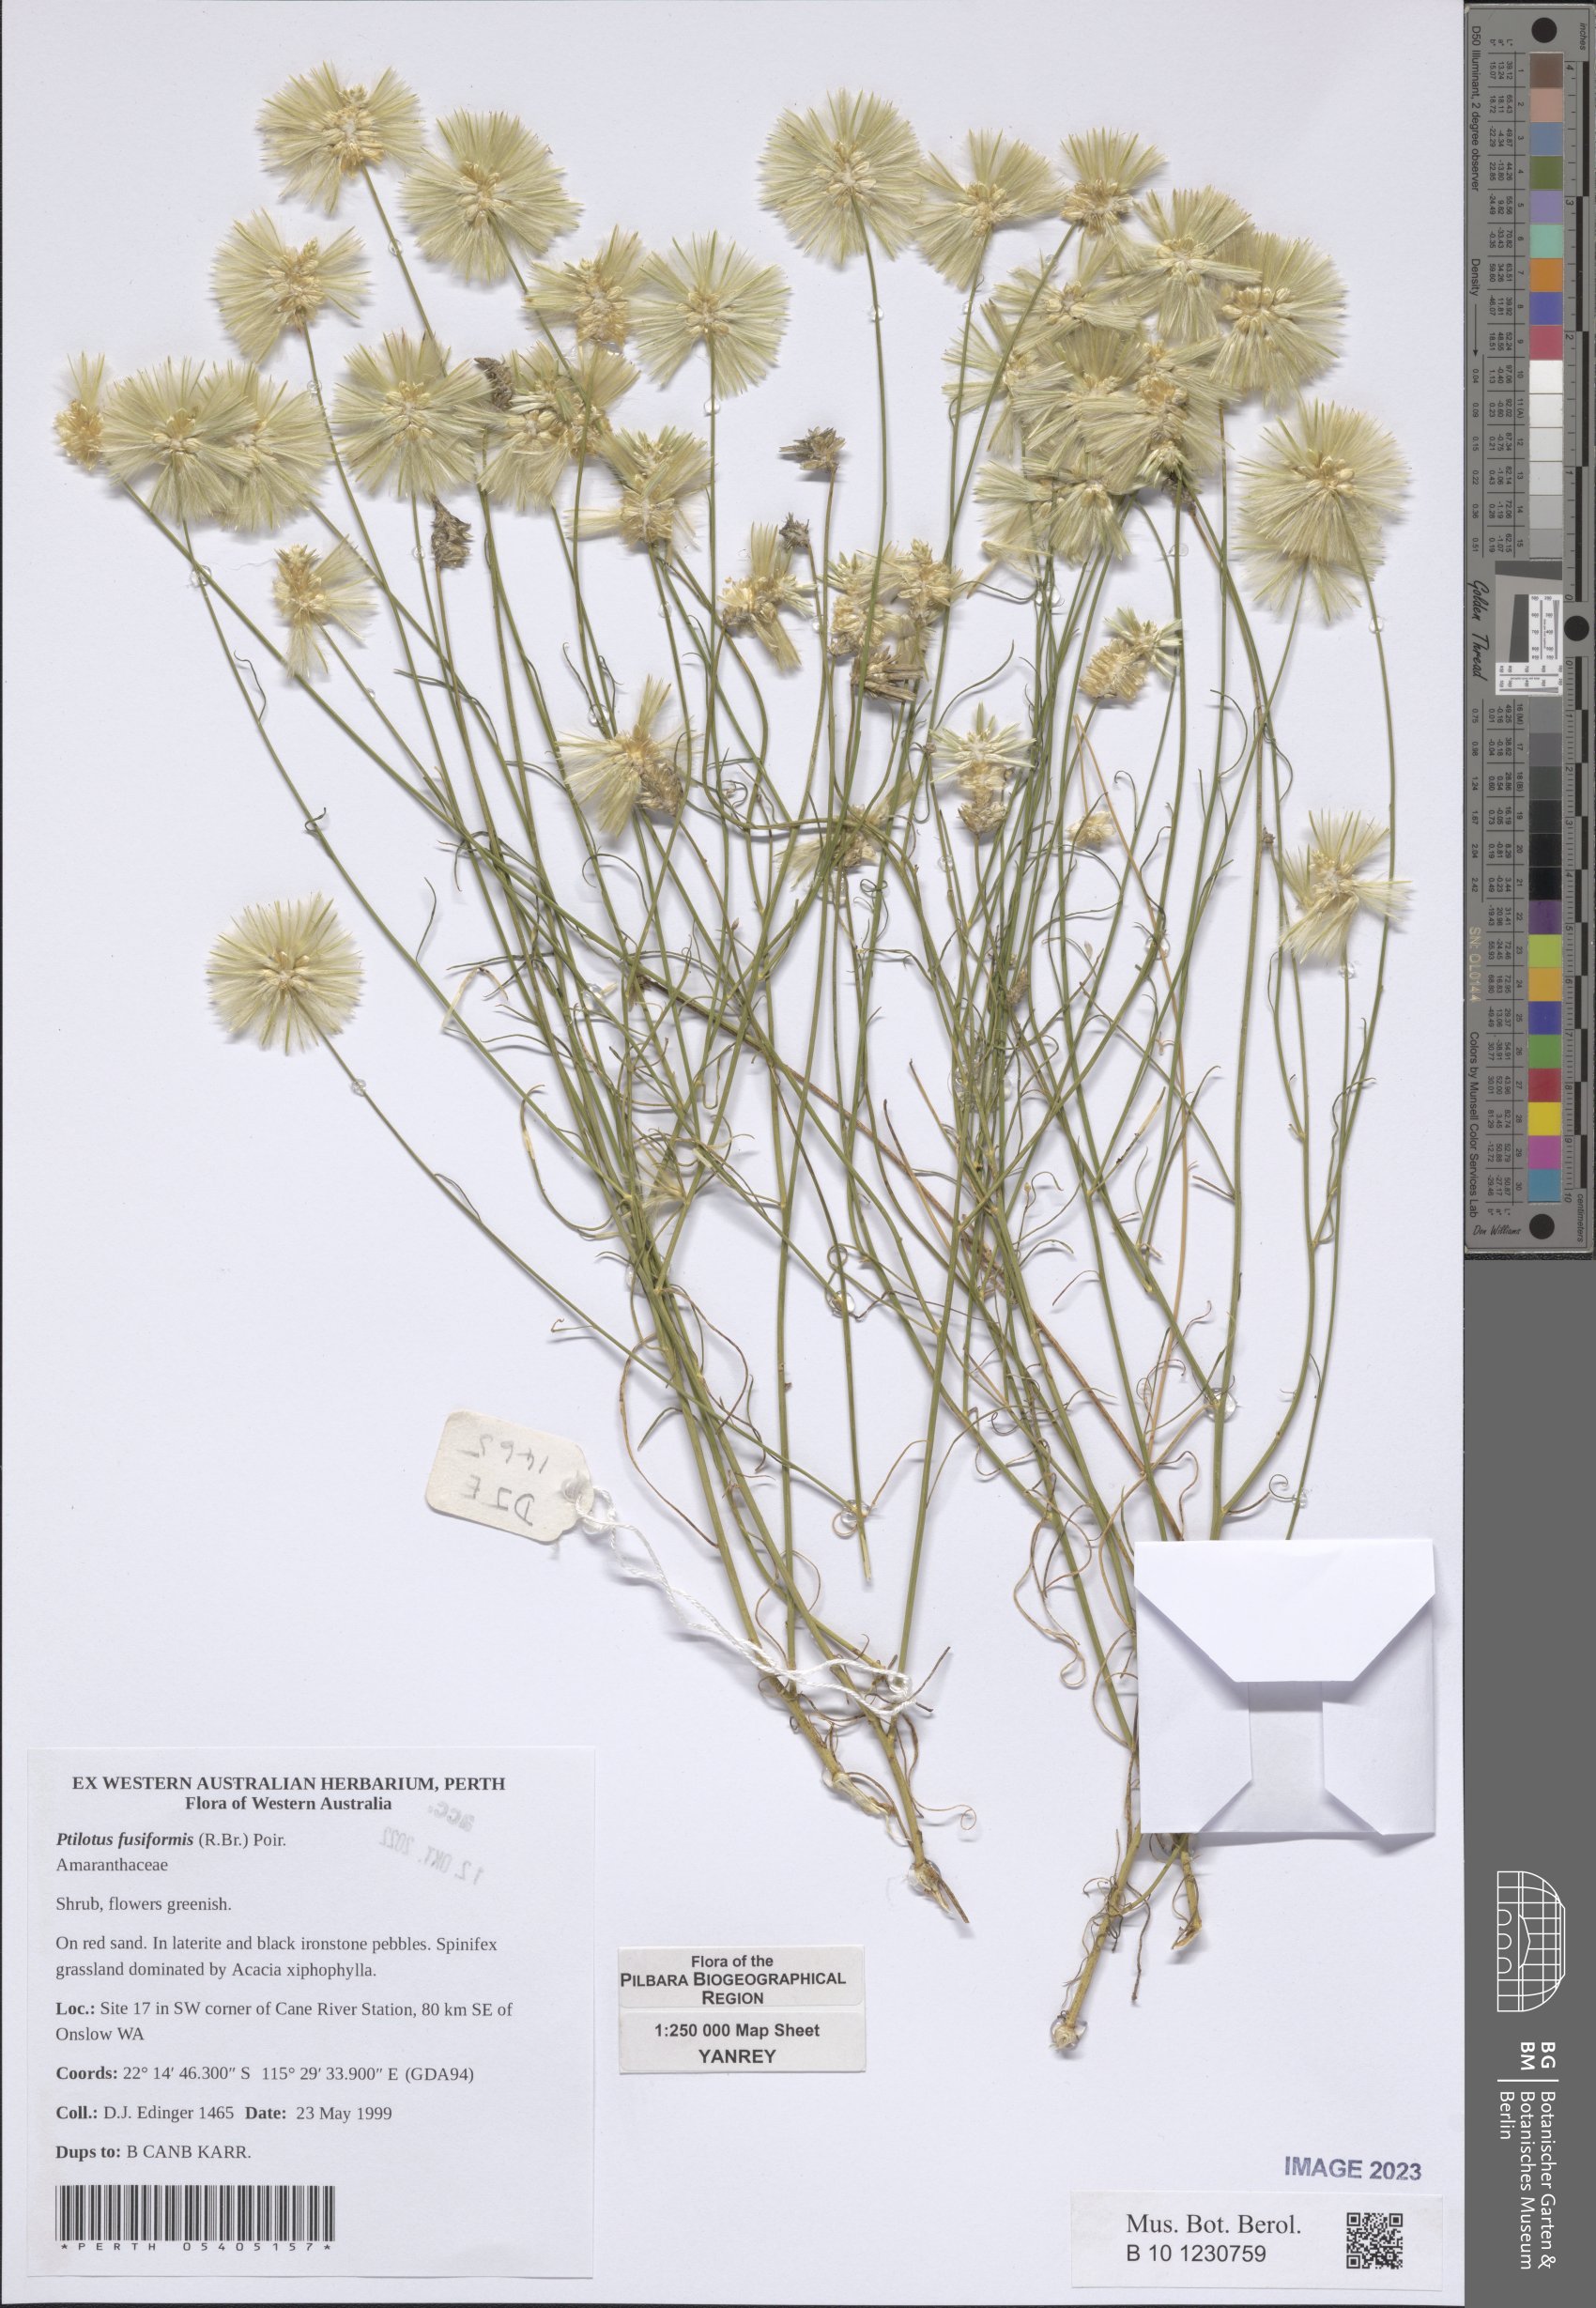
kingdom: Plantae
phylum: Tracheophyta
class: Magnoliopsida
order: Caryophyllales
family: Amaranthaceae
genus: Ptilotus
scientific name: Ptilotus fusiformis
